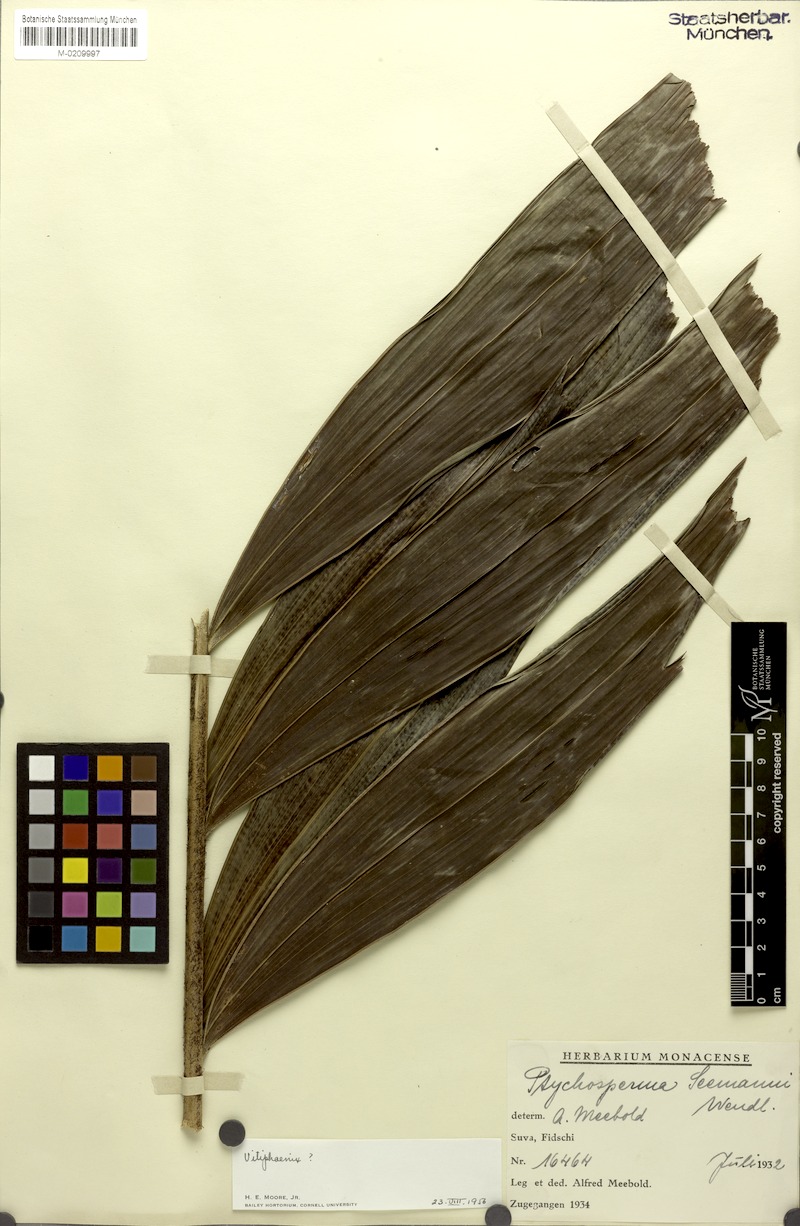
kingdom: Plantae
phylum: Tracheophyta
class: Liliopsida
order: Arecales
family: Arecaceae
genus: Balaka
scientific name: Balaka seemannii
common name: Balaka palm
